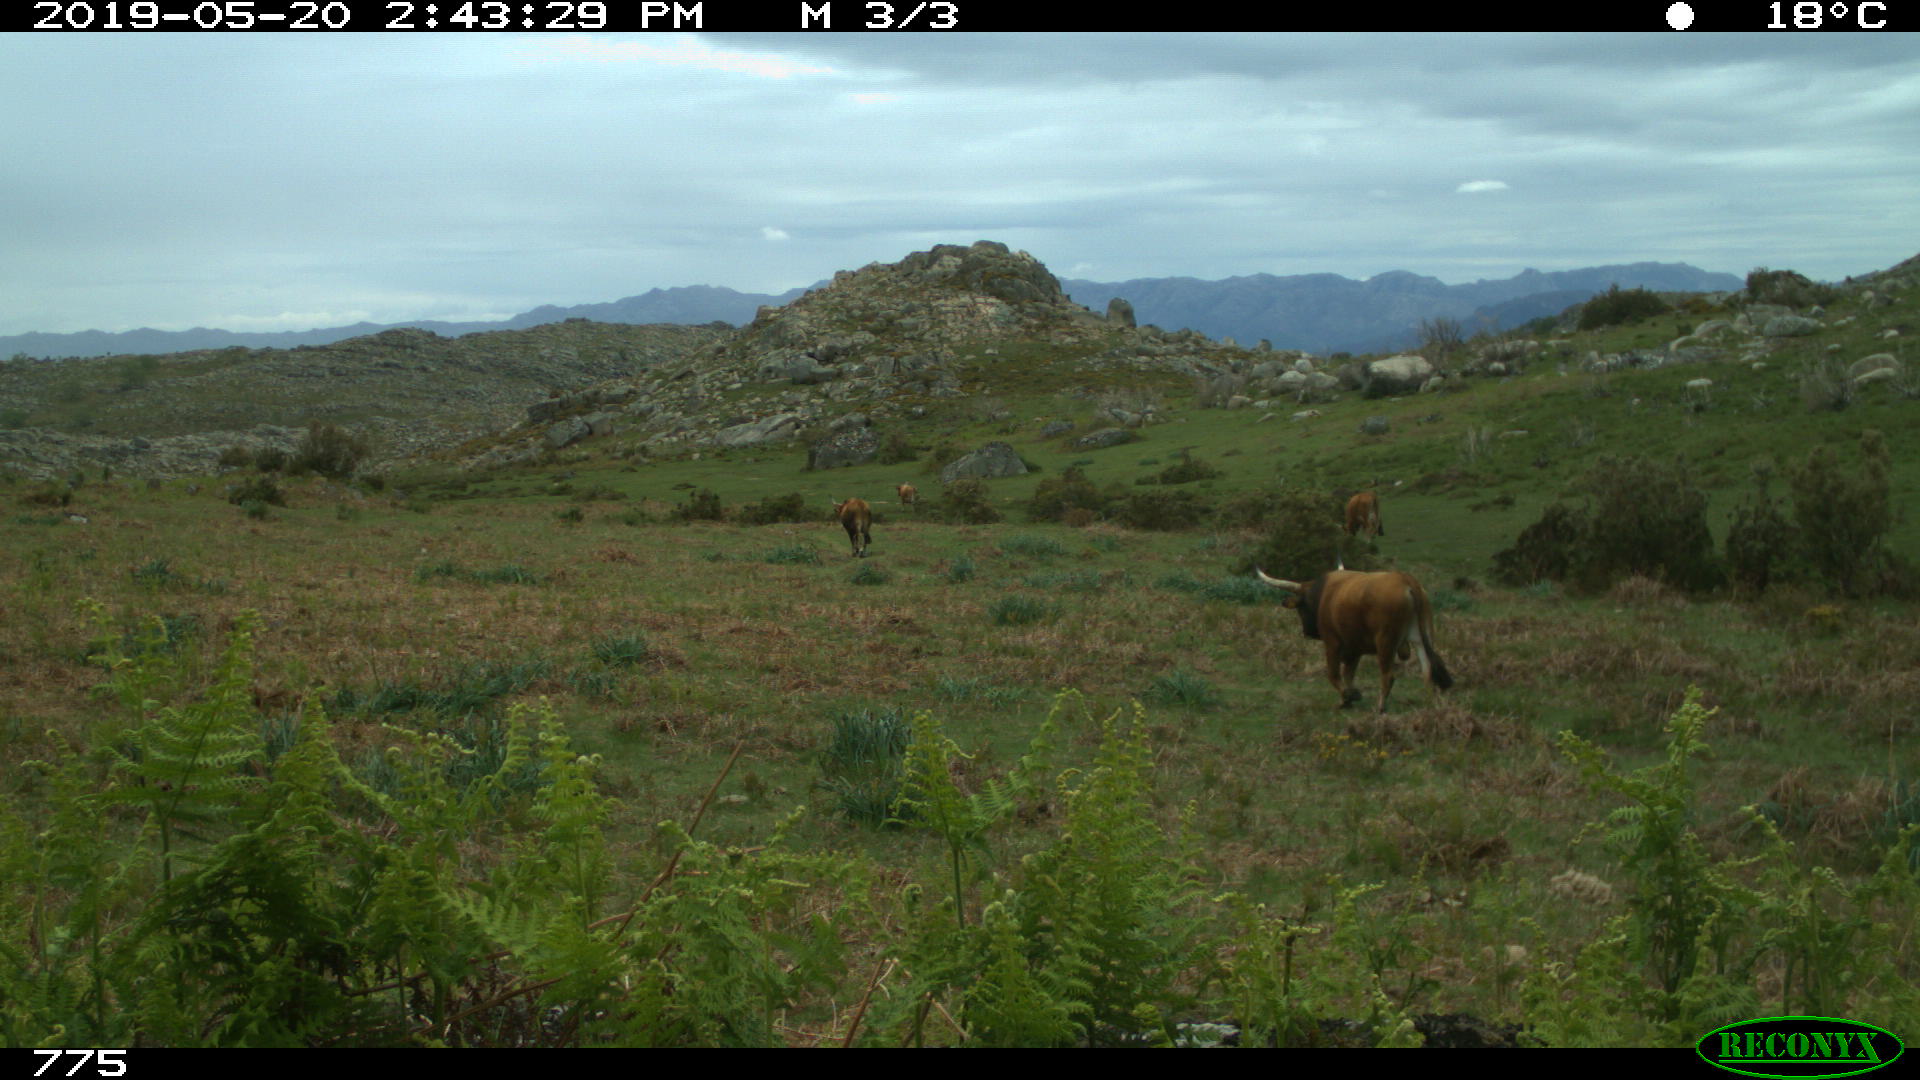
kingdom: Animalia
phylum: Chordata
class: Mammalia
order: Artiodactyla
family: Bovidae
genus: Bos
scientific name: Bos taurus
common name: Domesticated cattle
